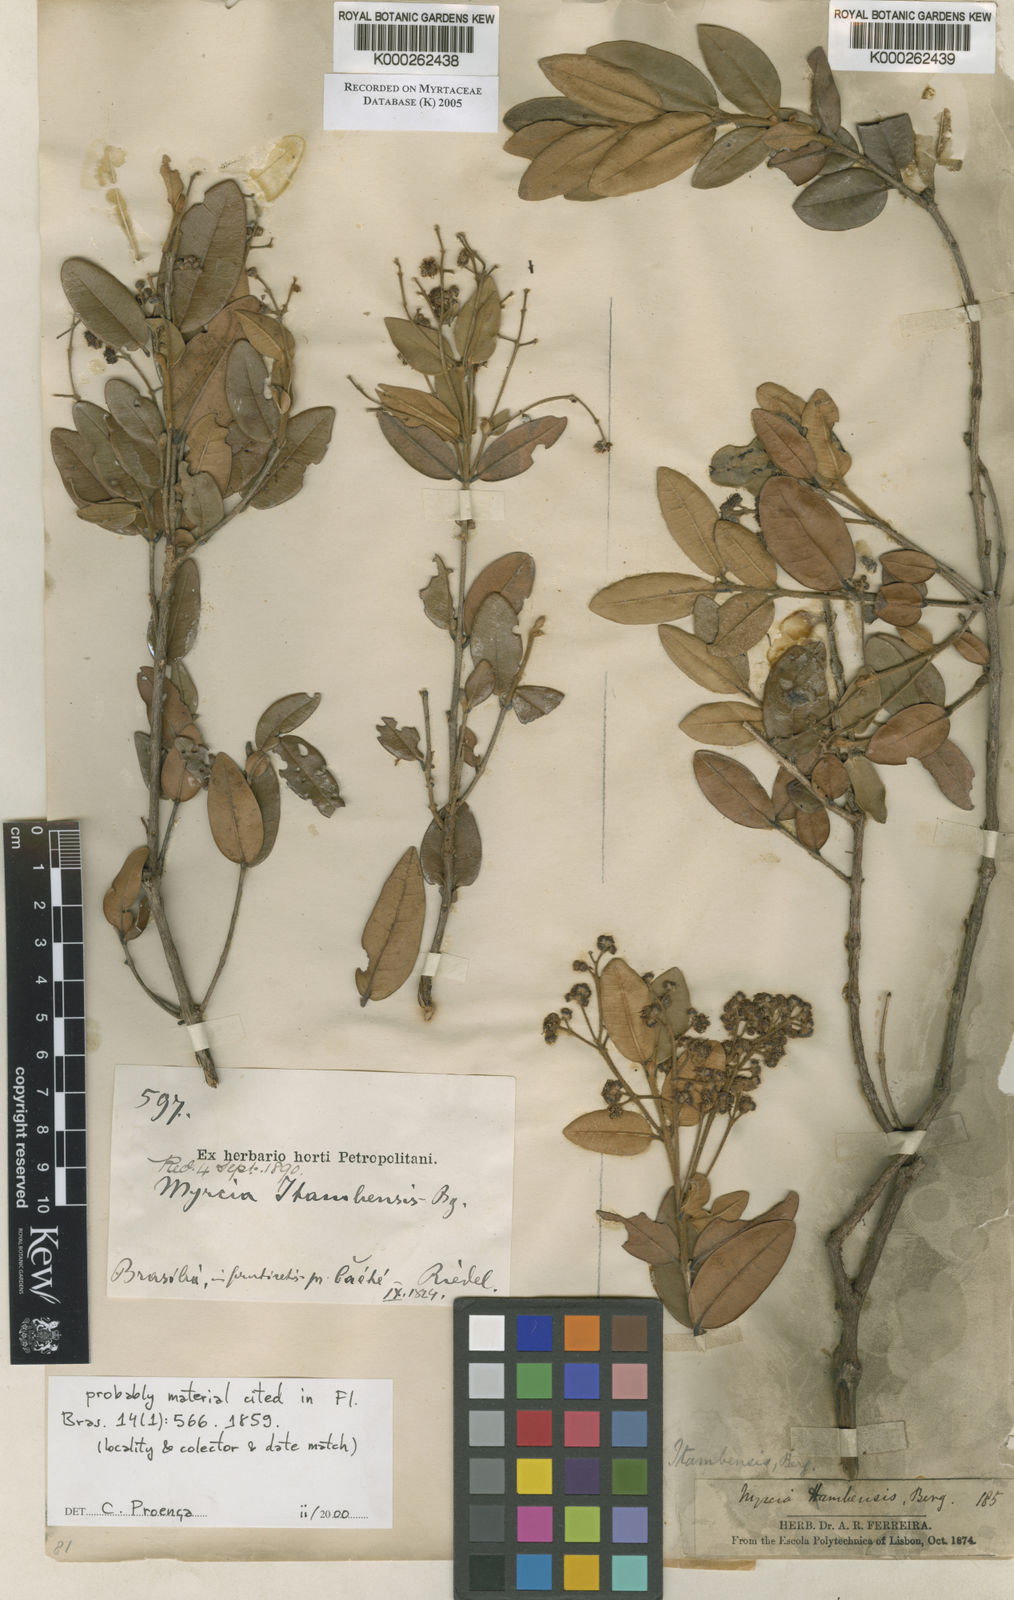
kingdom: Plantae
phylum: Tracheophyta
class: Magnoliopsida
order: Myrtales
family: Myrtaceae
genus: Myrcia
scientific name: Myrcia retorta
